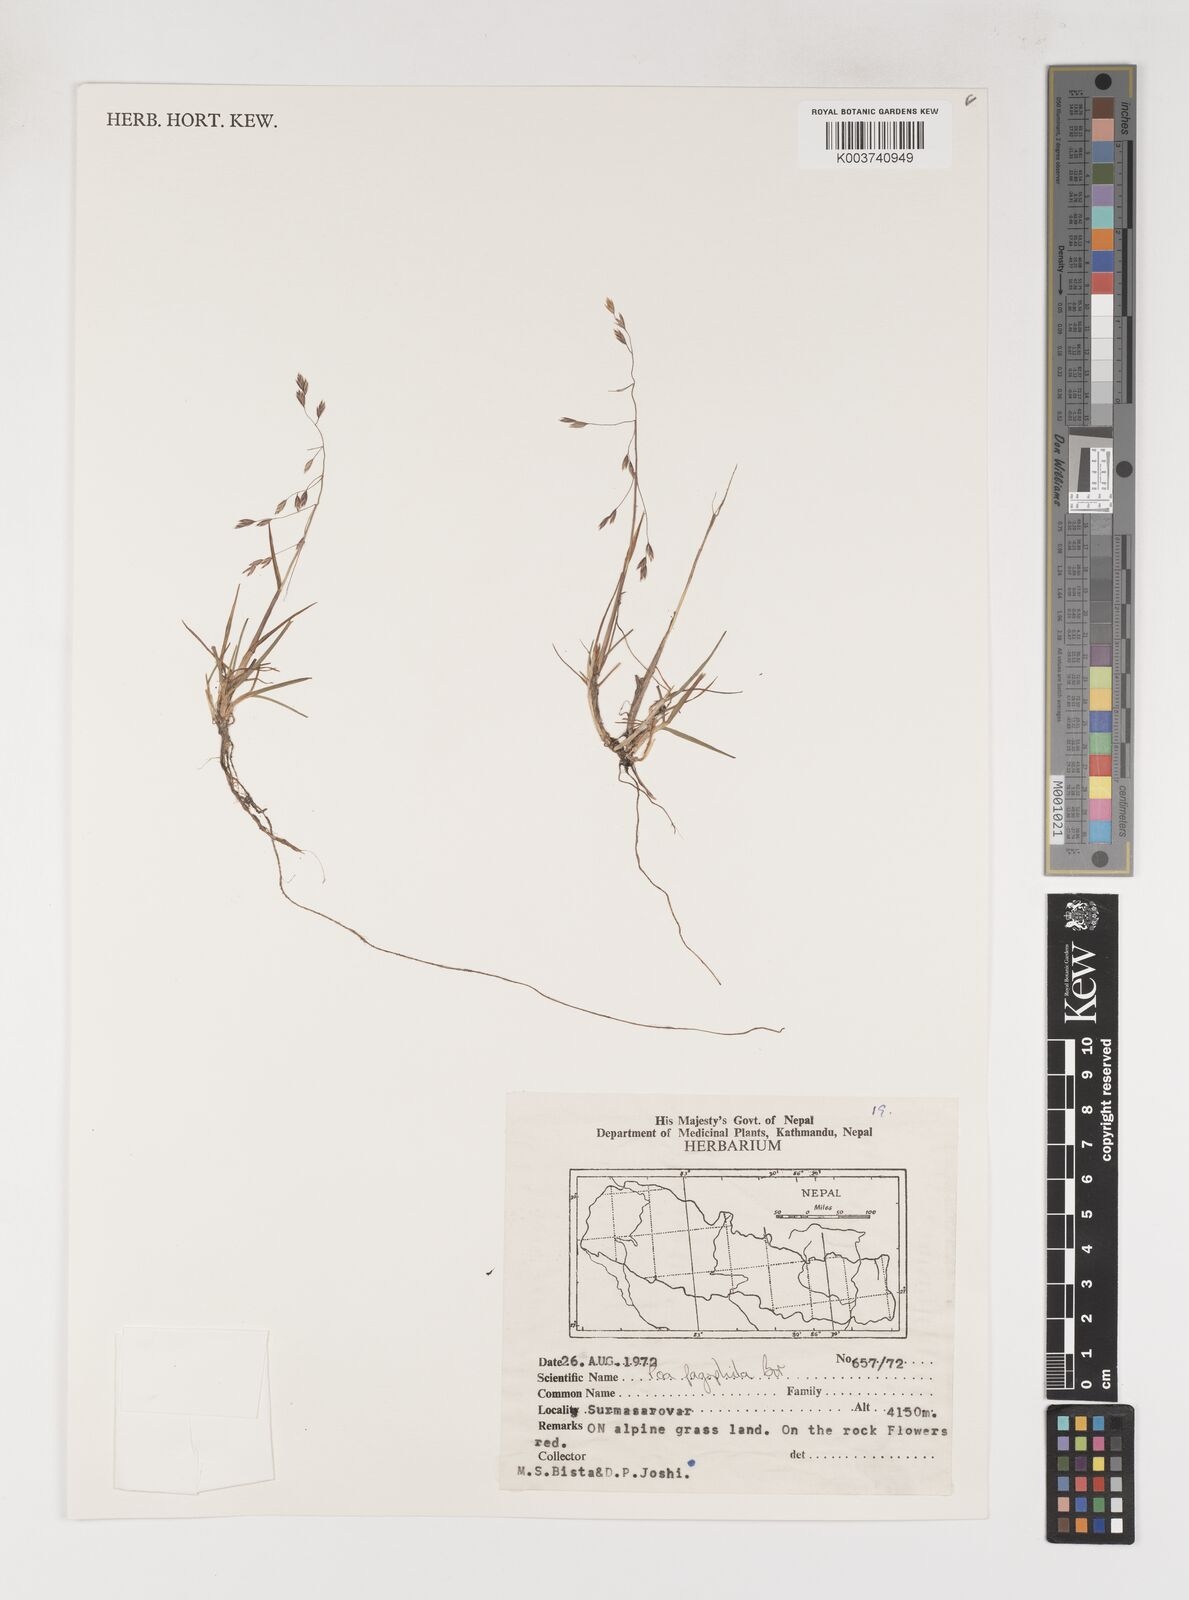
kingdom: Plantae
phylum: Tracheophyta
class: Liliopsida
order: Poales
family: Poaceae
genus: Poa
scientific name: Poa pagophila
